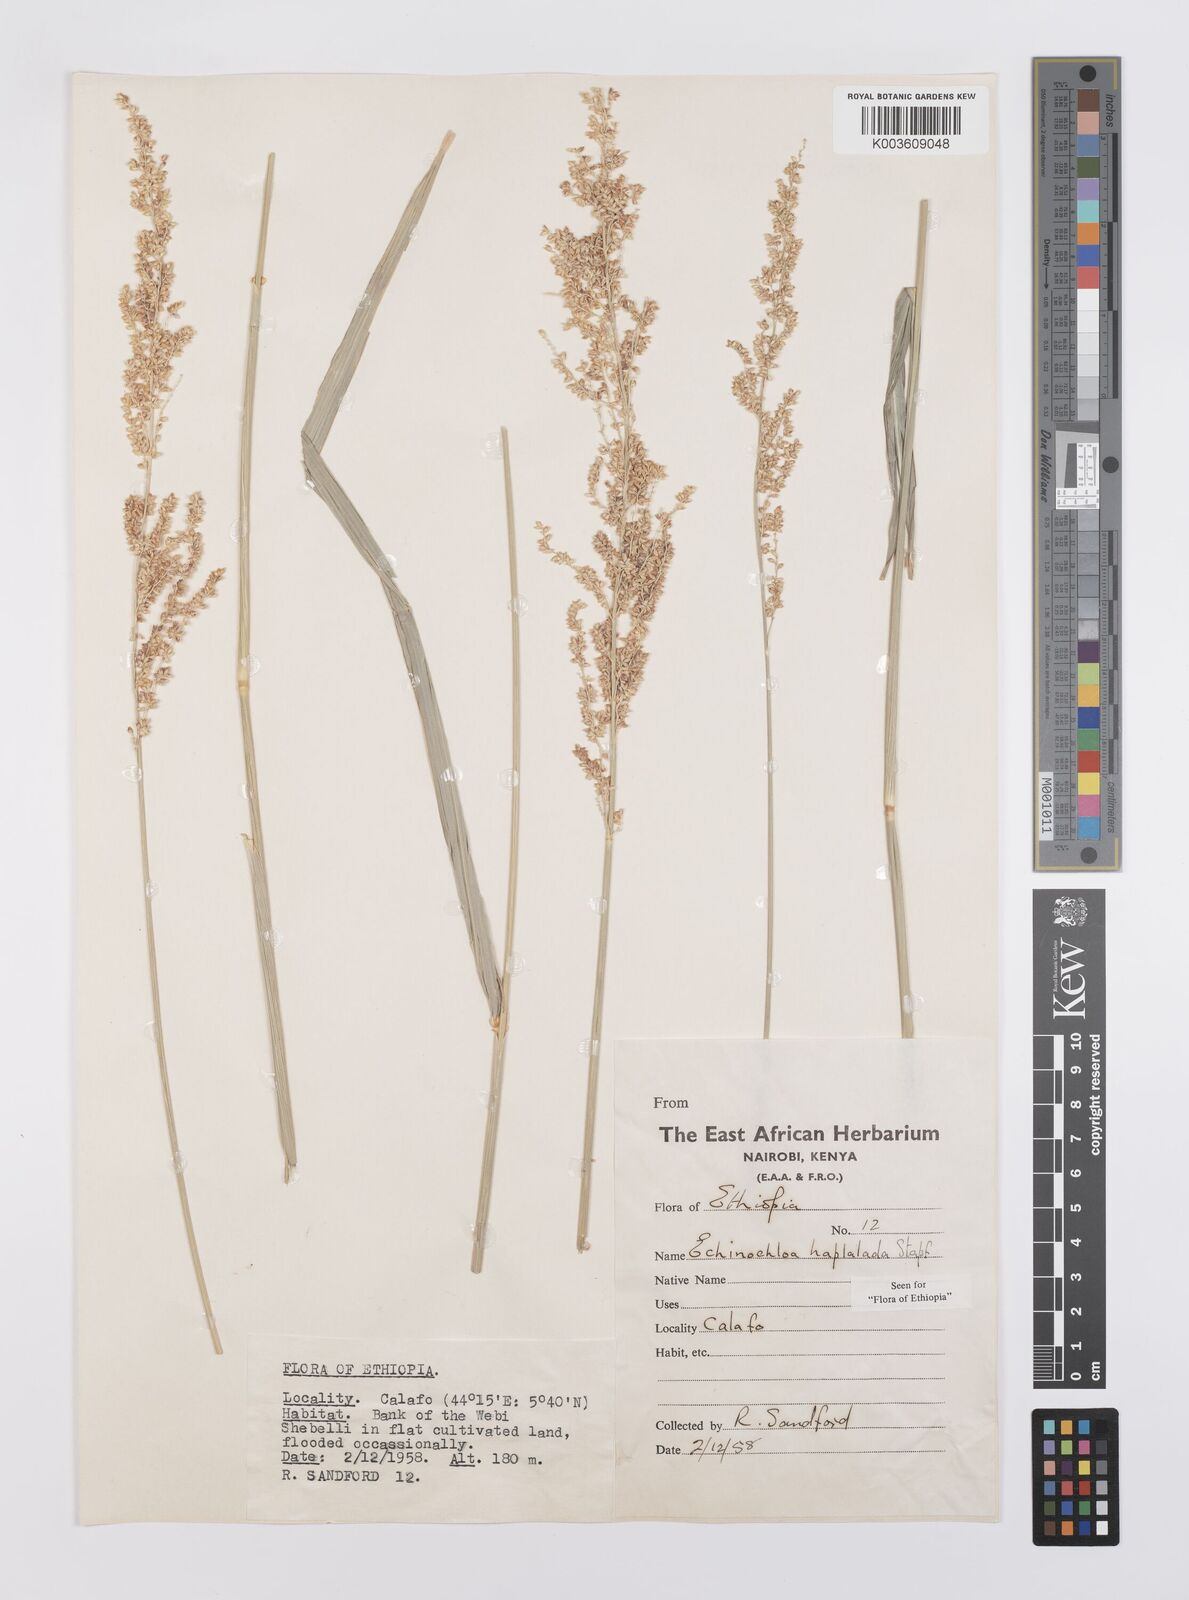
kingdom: Plantae
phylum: Tracheophyta
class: Liliopsida
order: Poales
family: Poaceae
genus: Echinochloa
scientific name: Echinochloa haploclada
